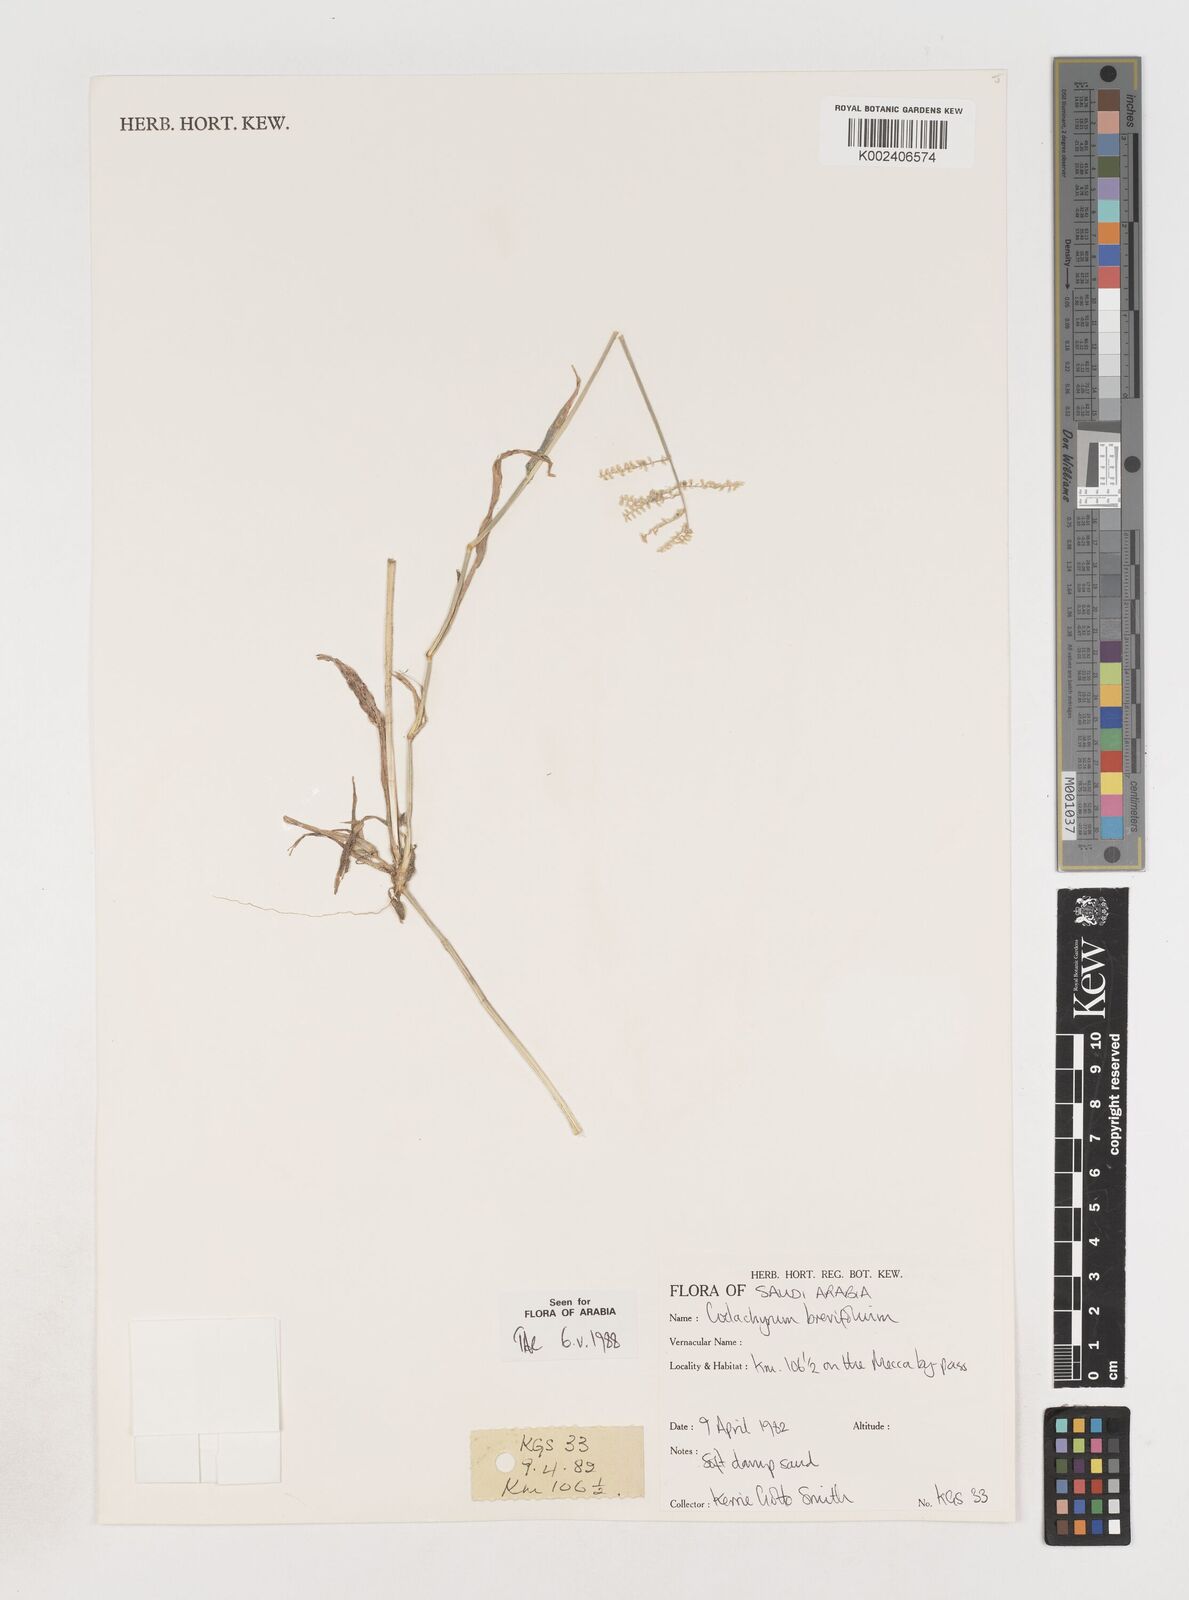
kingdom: Plantae
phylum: Tracheophyta
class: Liliopsida
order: Poales
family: Poaceae
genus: Coelachyrum
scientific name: Coelachyrum brevifolium
